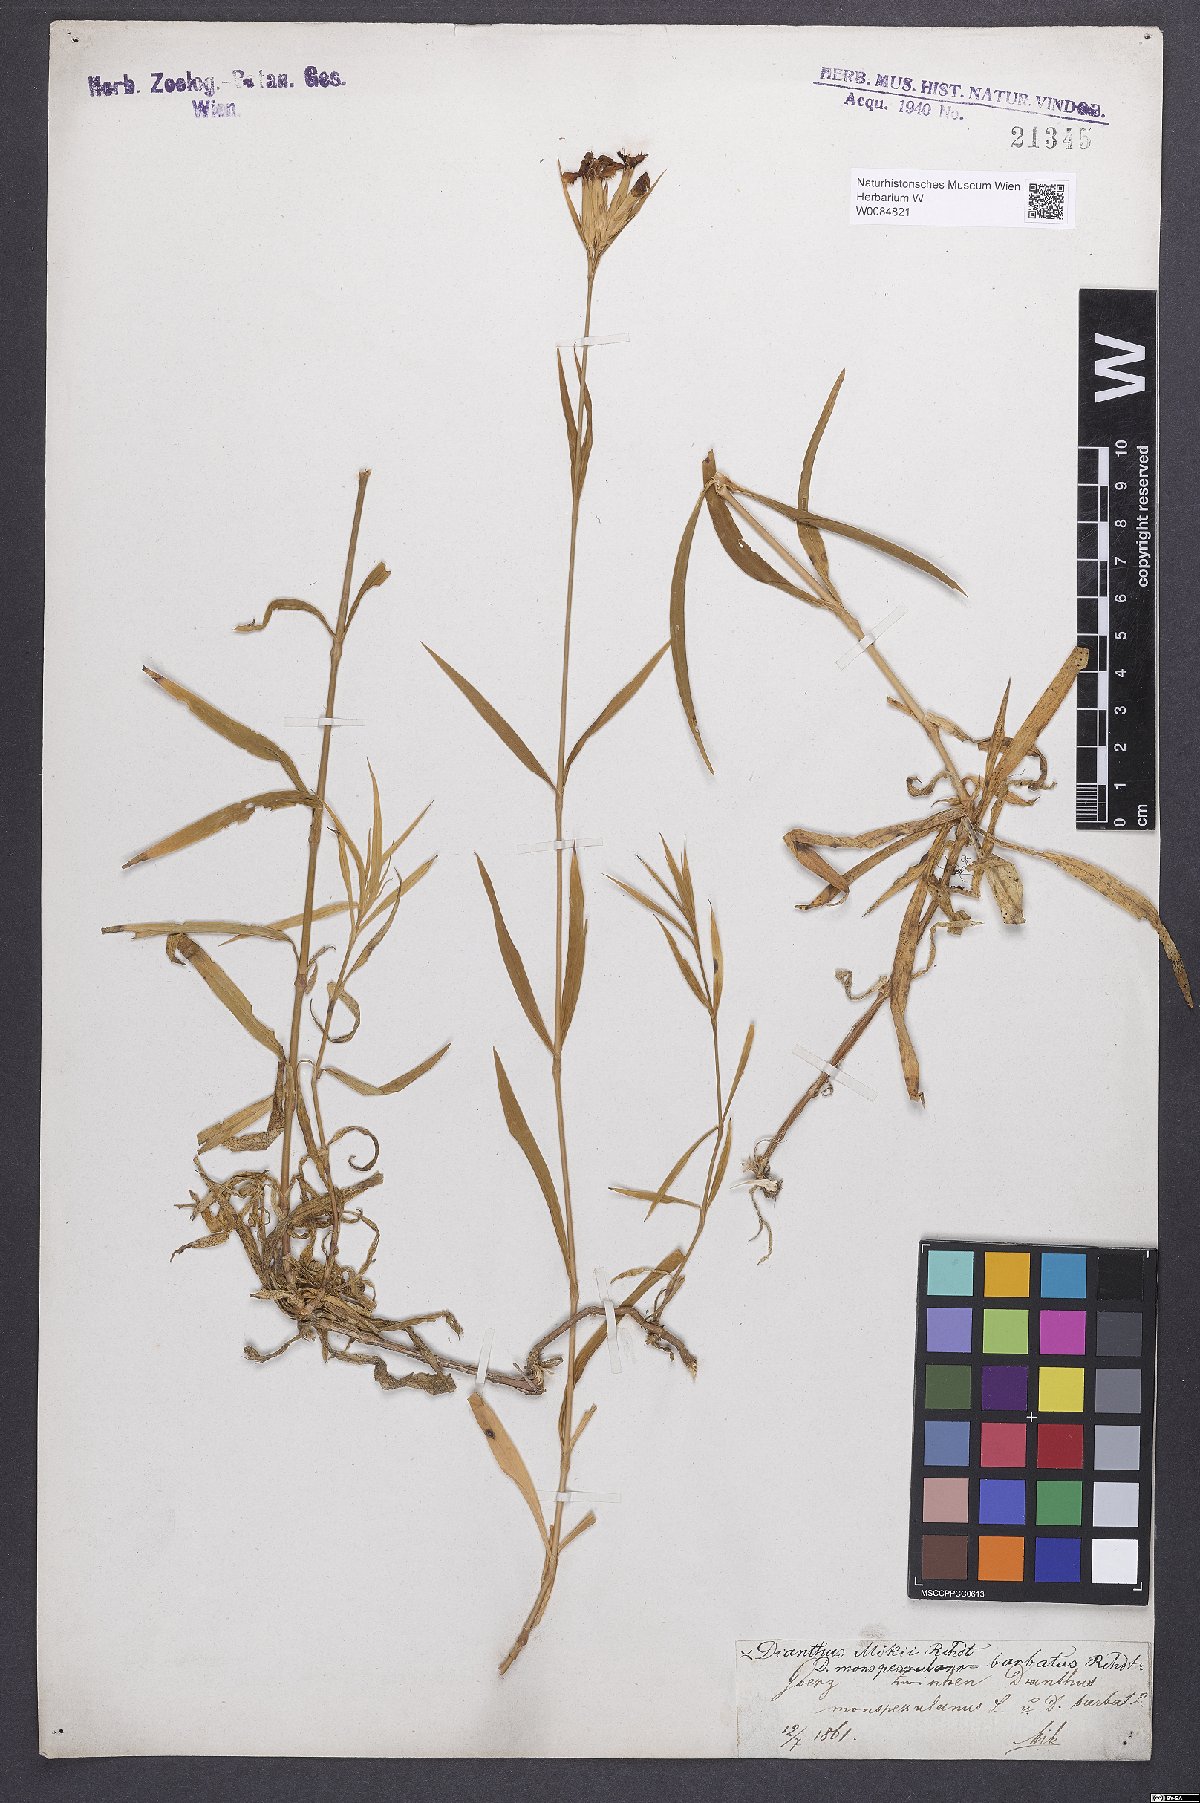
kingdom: Plantae
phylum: Tracheophyta
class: Magnoliopsida
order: Caryophyllales
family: Caryophyllaceae
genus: Dianthus
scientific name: Dianthus monspessulanus
